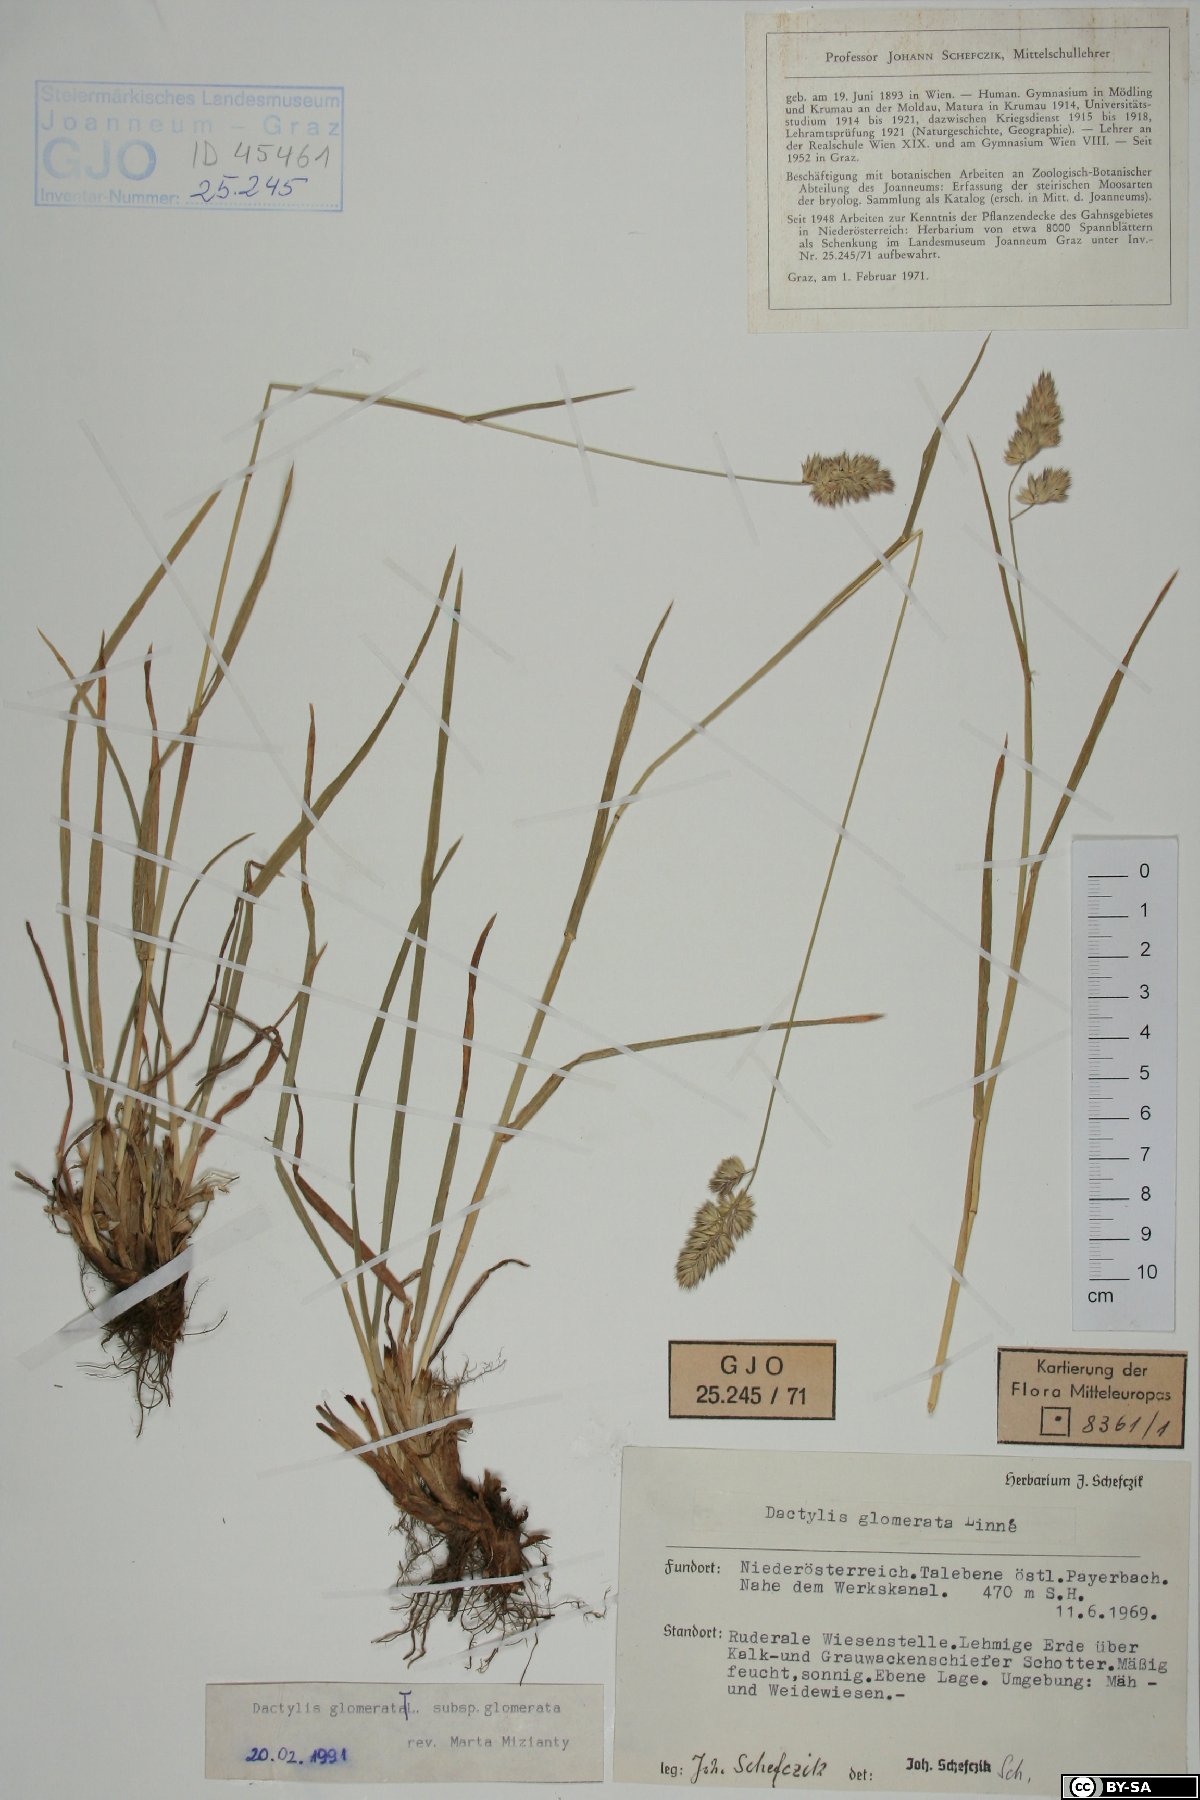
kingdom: Plantae
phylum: Tracheophyta
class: Liliopsida
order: Poales
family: Poaceae
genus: Dactylis
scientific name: Dactylis glomerata
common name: Orchardgrass
